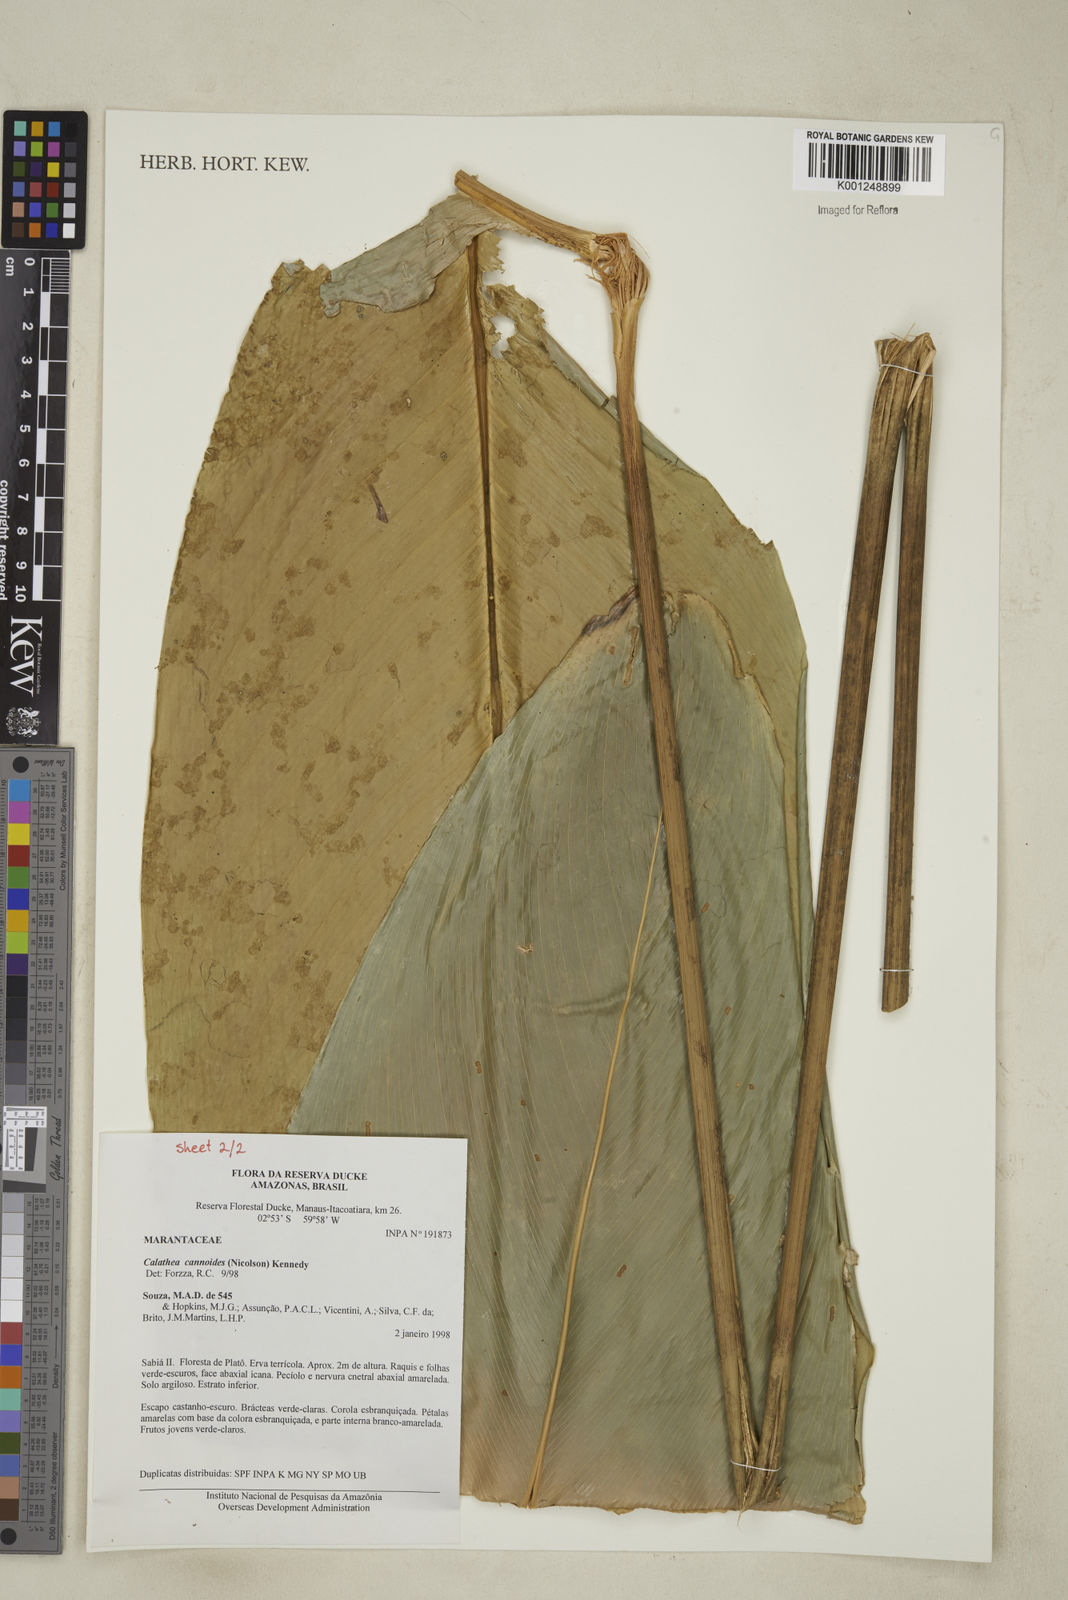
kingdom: Plantae
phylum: Tracheophyta
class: Liliopsida
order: Zingiberales
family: Marantaceae
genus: Goeppertia
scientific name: Goeppertia cannoides
